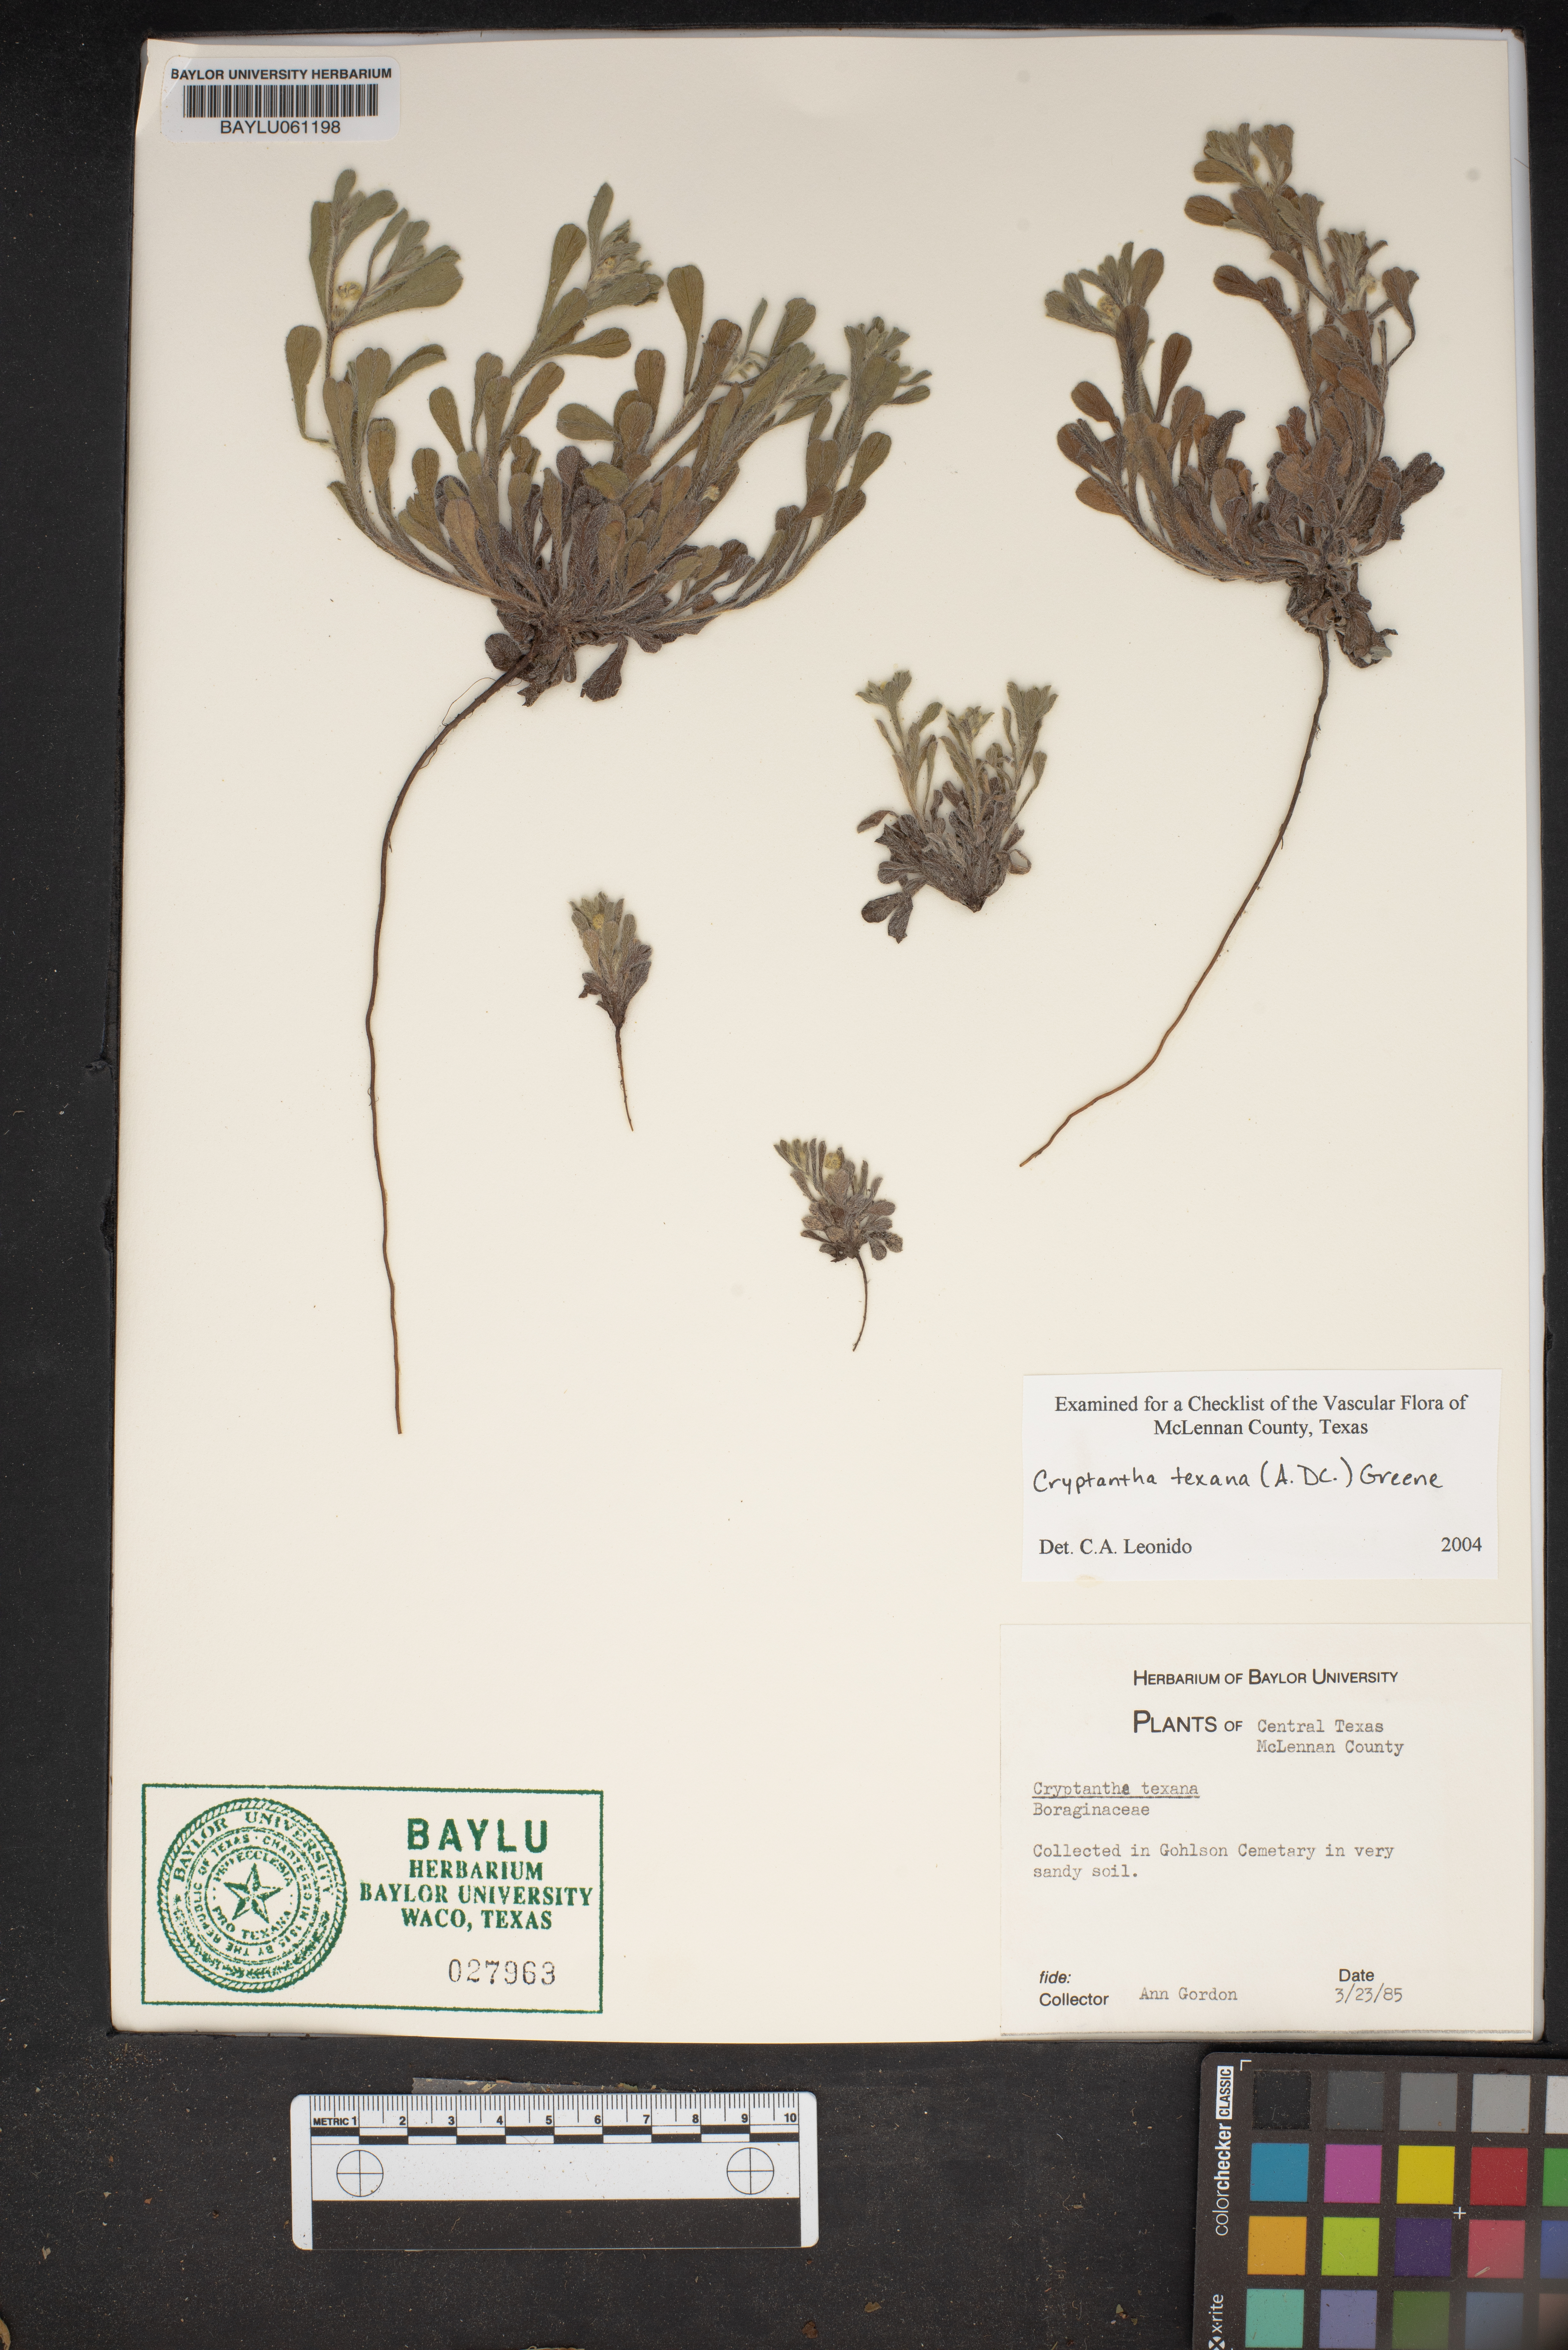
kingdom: Plantae
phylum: Tracheophyta
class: Magnoliopsida
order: Boraginales
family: Boraginaceae
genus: Cryptantha
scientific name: Cryptantha texana
